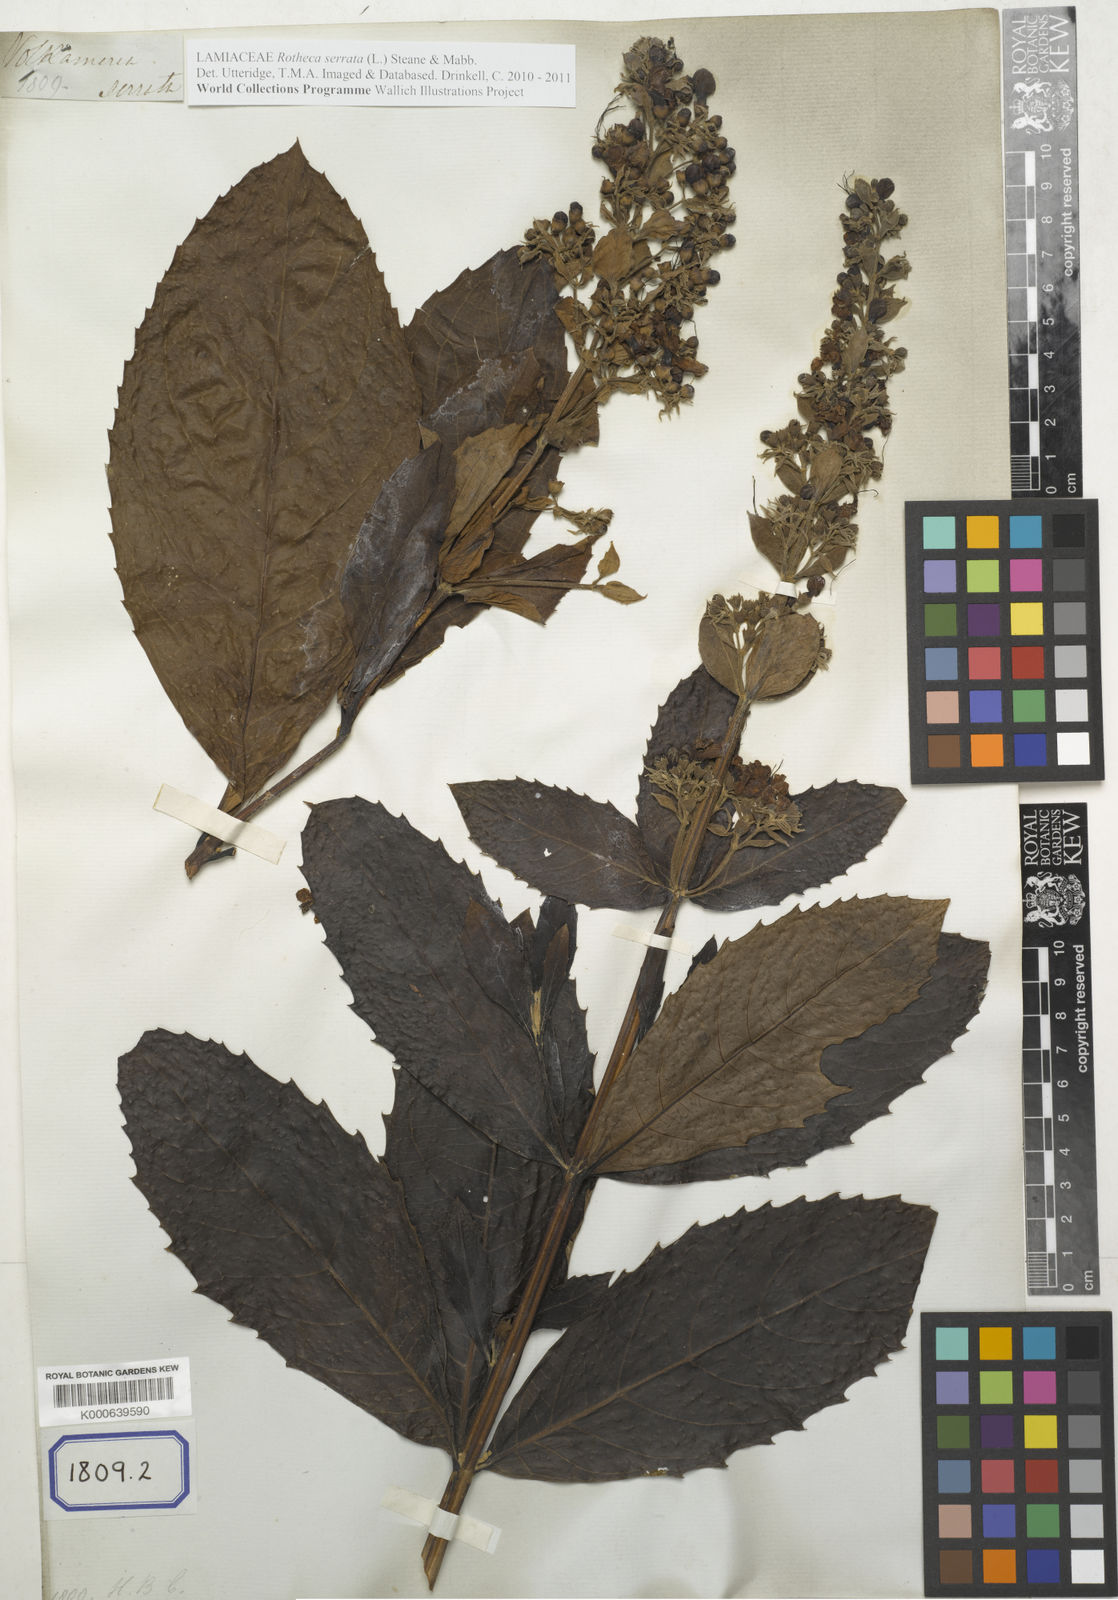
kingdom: Plantae
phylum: Tracheophyta
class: Magnoliopsida
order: Lamiales
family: Lamiaceae
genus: Clerodendrum
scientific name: Clerodendrum
